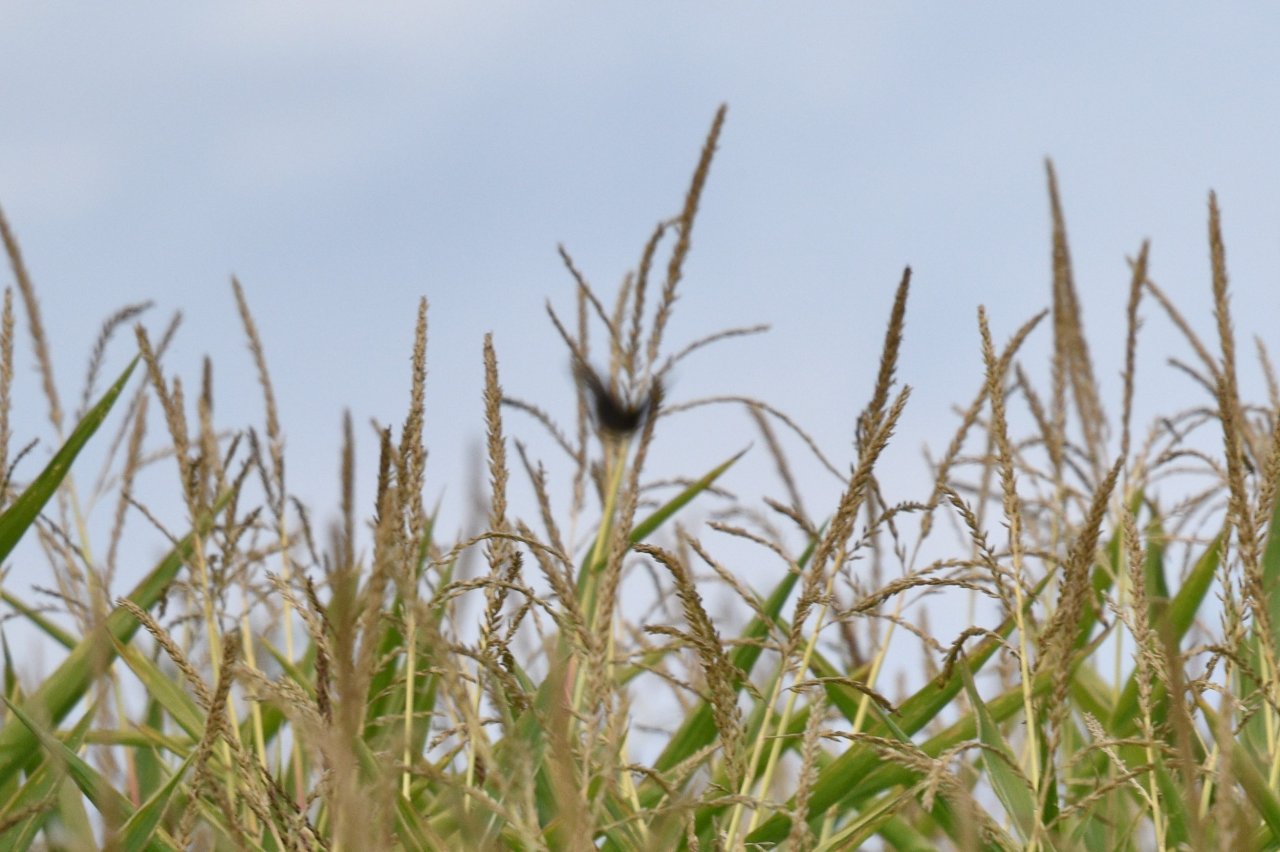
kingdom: Animalia
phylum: Arthropoda
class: Insecta
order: Lepidoptera
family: Papilionidae
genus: Papilio
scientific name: Papilio polyxenes
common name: Black Swallowtail
